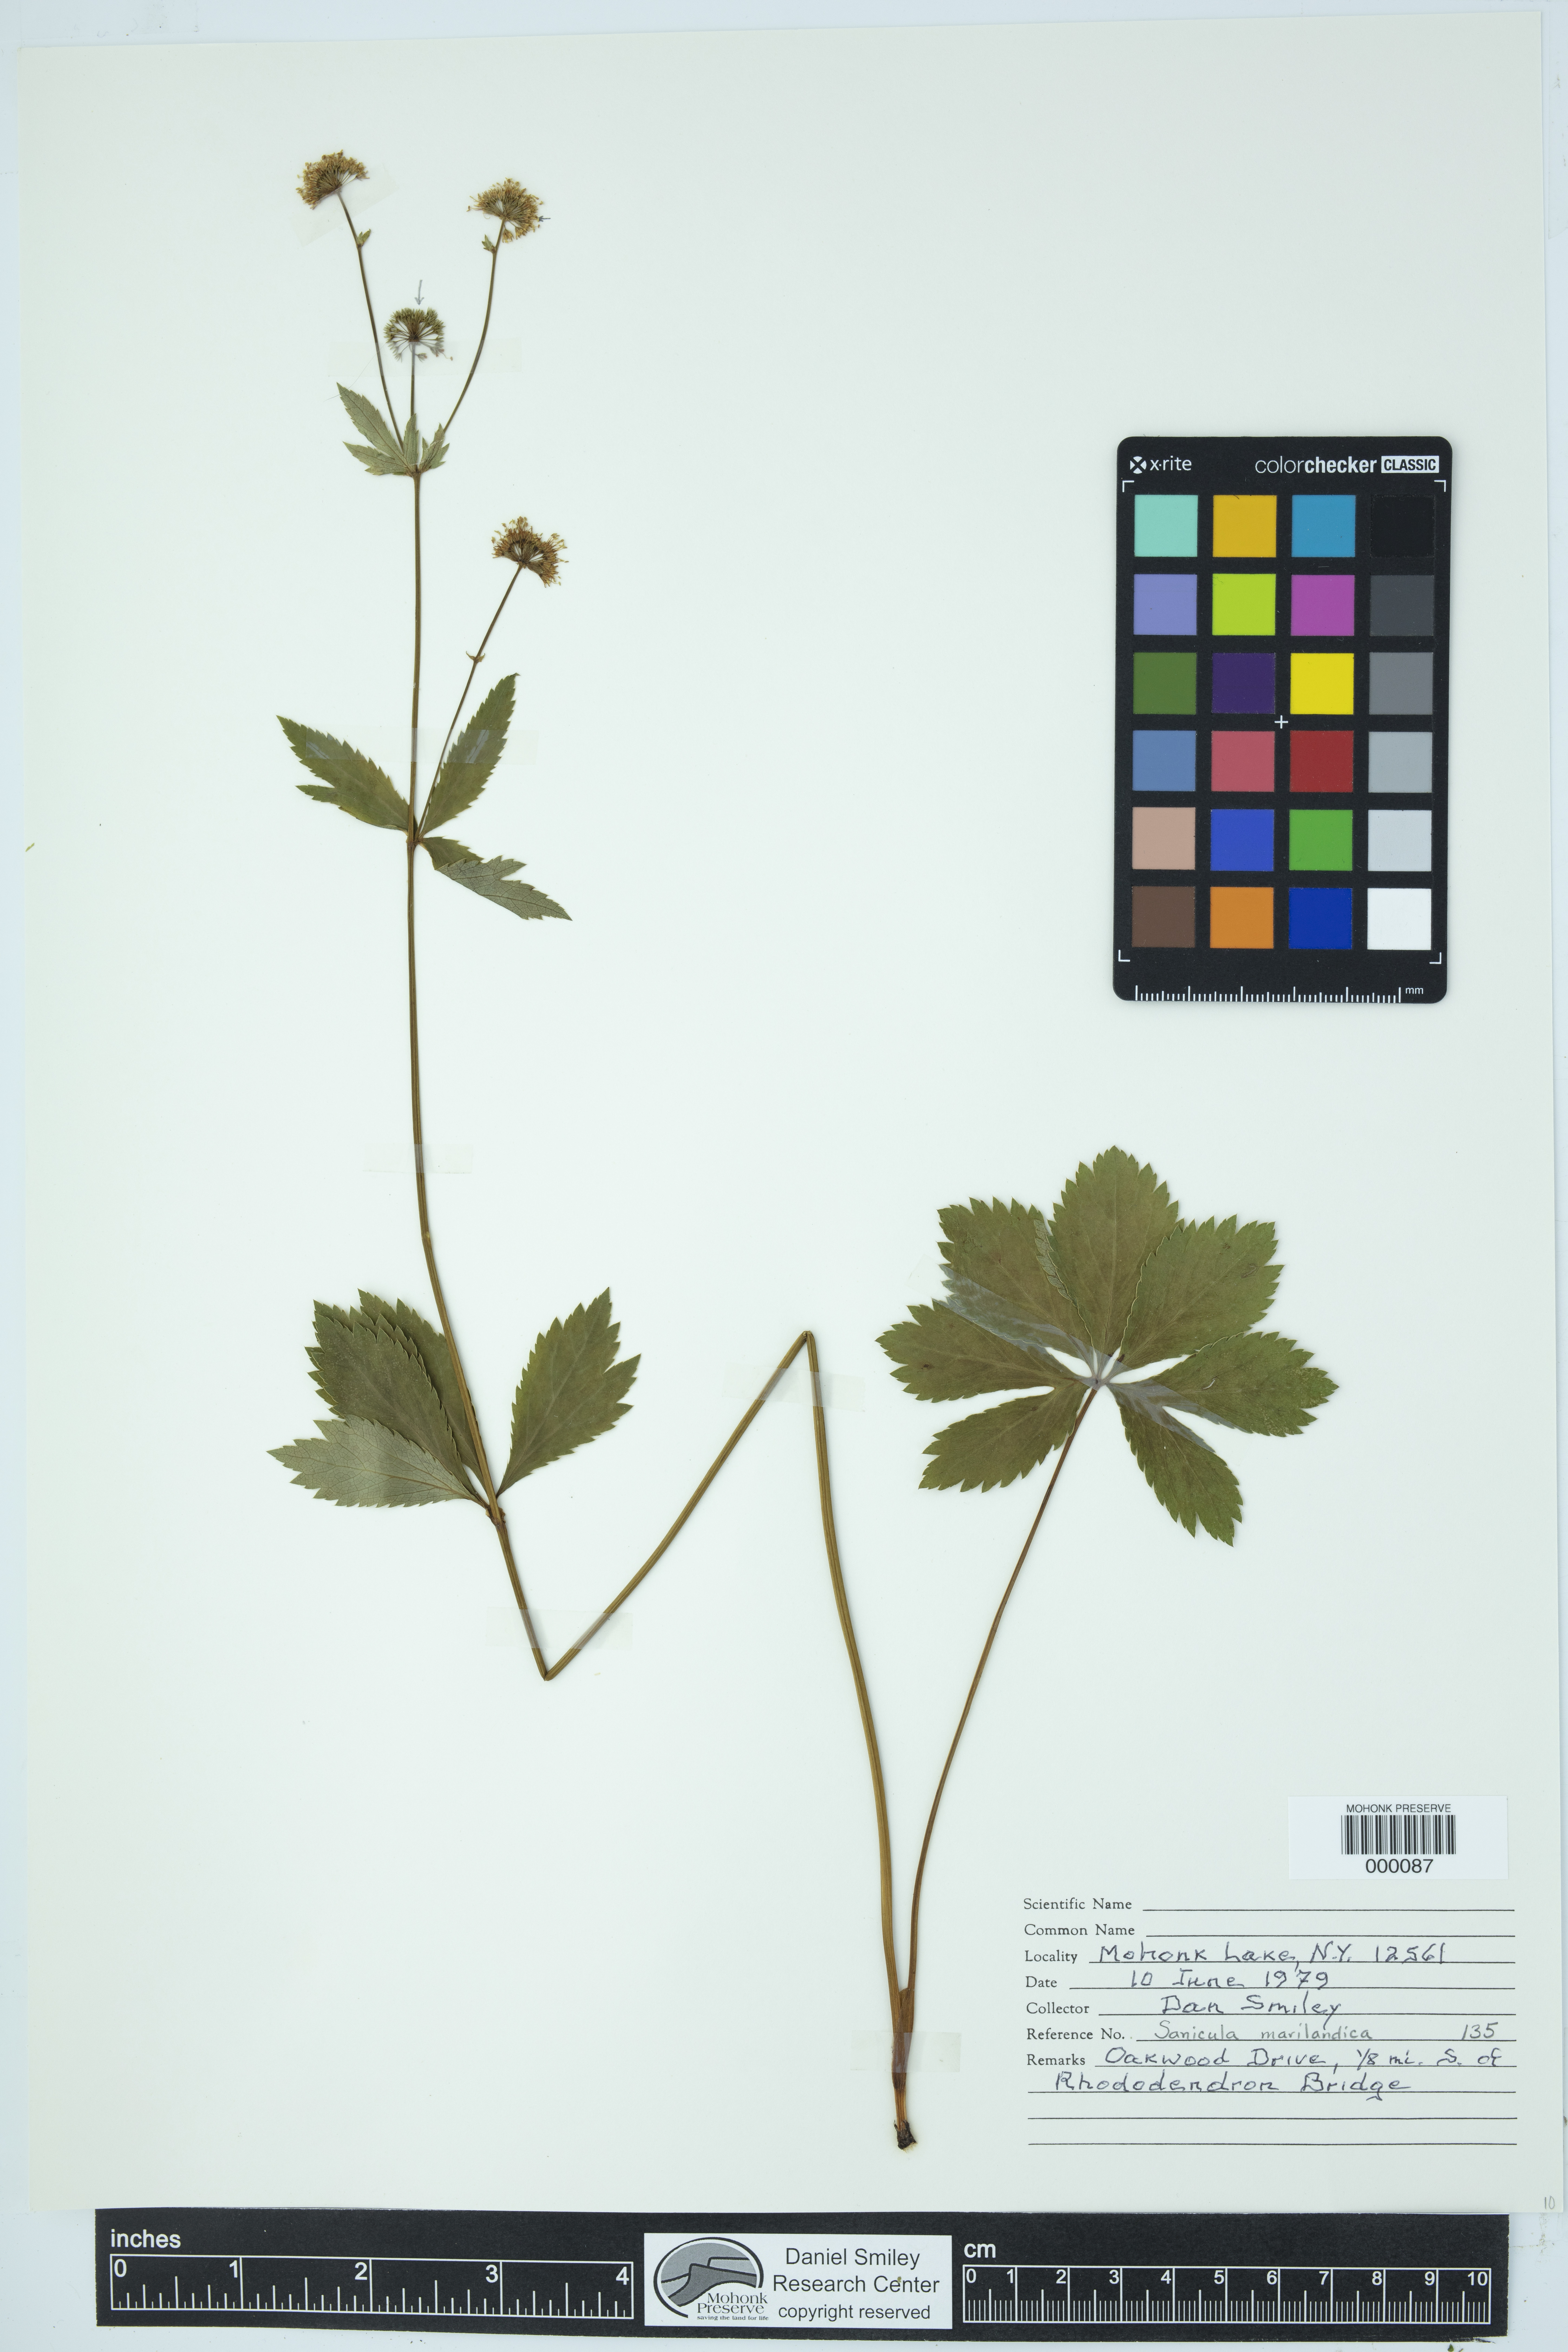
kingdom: Plantae
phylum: Tracheophyta
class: Magnoliopsida
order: Apiales
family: Apiaceae
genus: Sanicula
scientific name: Sanicula marilandica
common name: Black snakeroot
